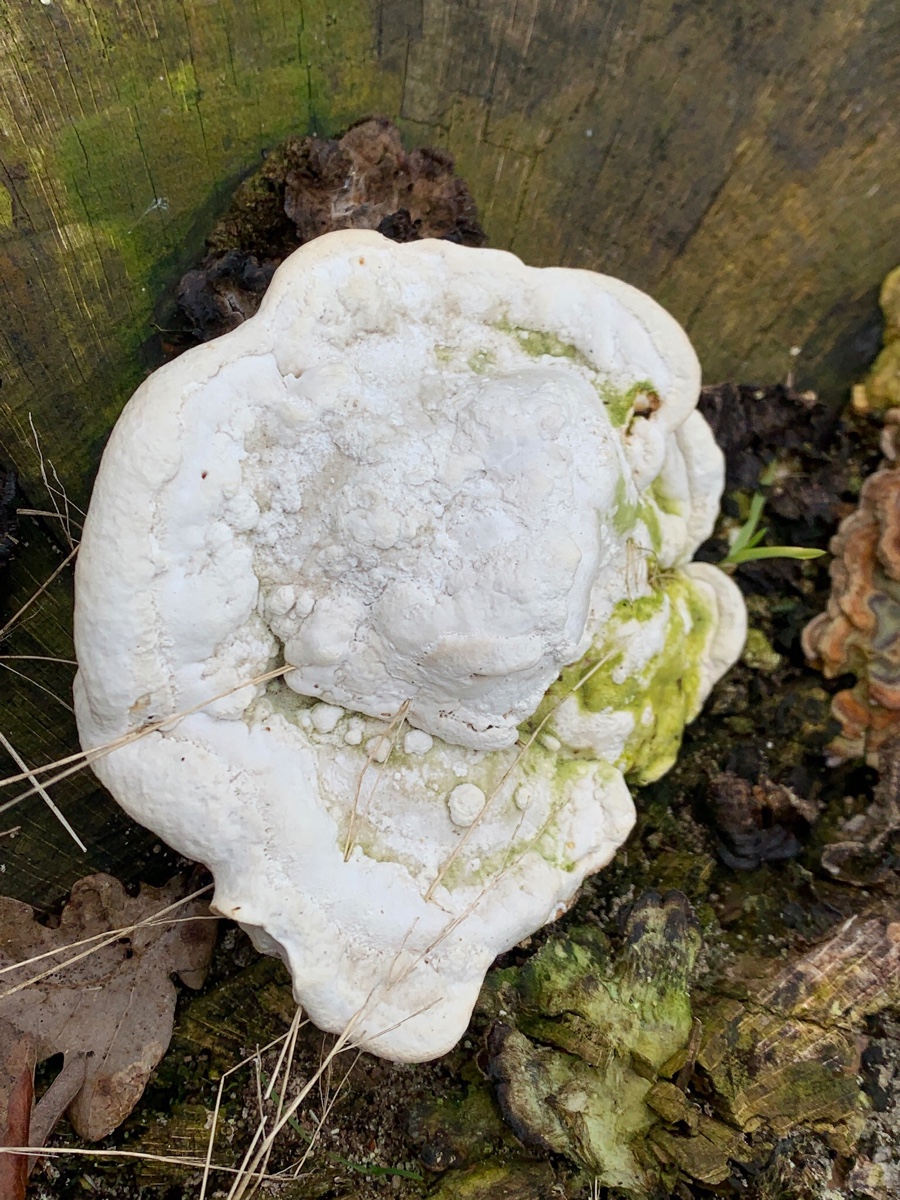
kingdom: Fungi
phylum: Basidiomycota
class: Agaricomycetes
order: Polyporales
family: Polyporaceae
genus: Trametes
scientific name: Trametes gibbosa
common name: puklet læderporesvamp
